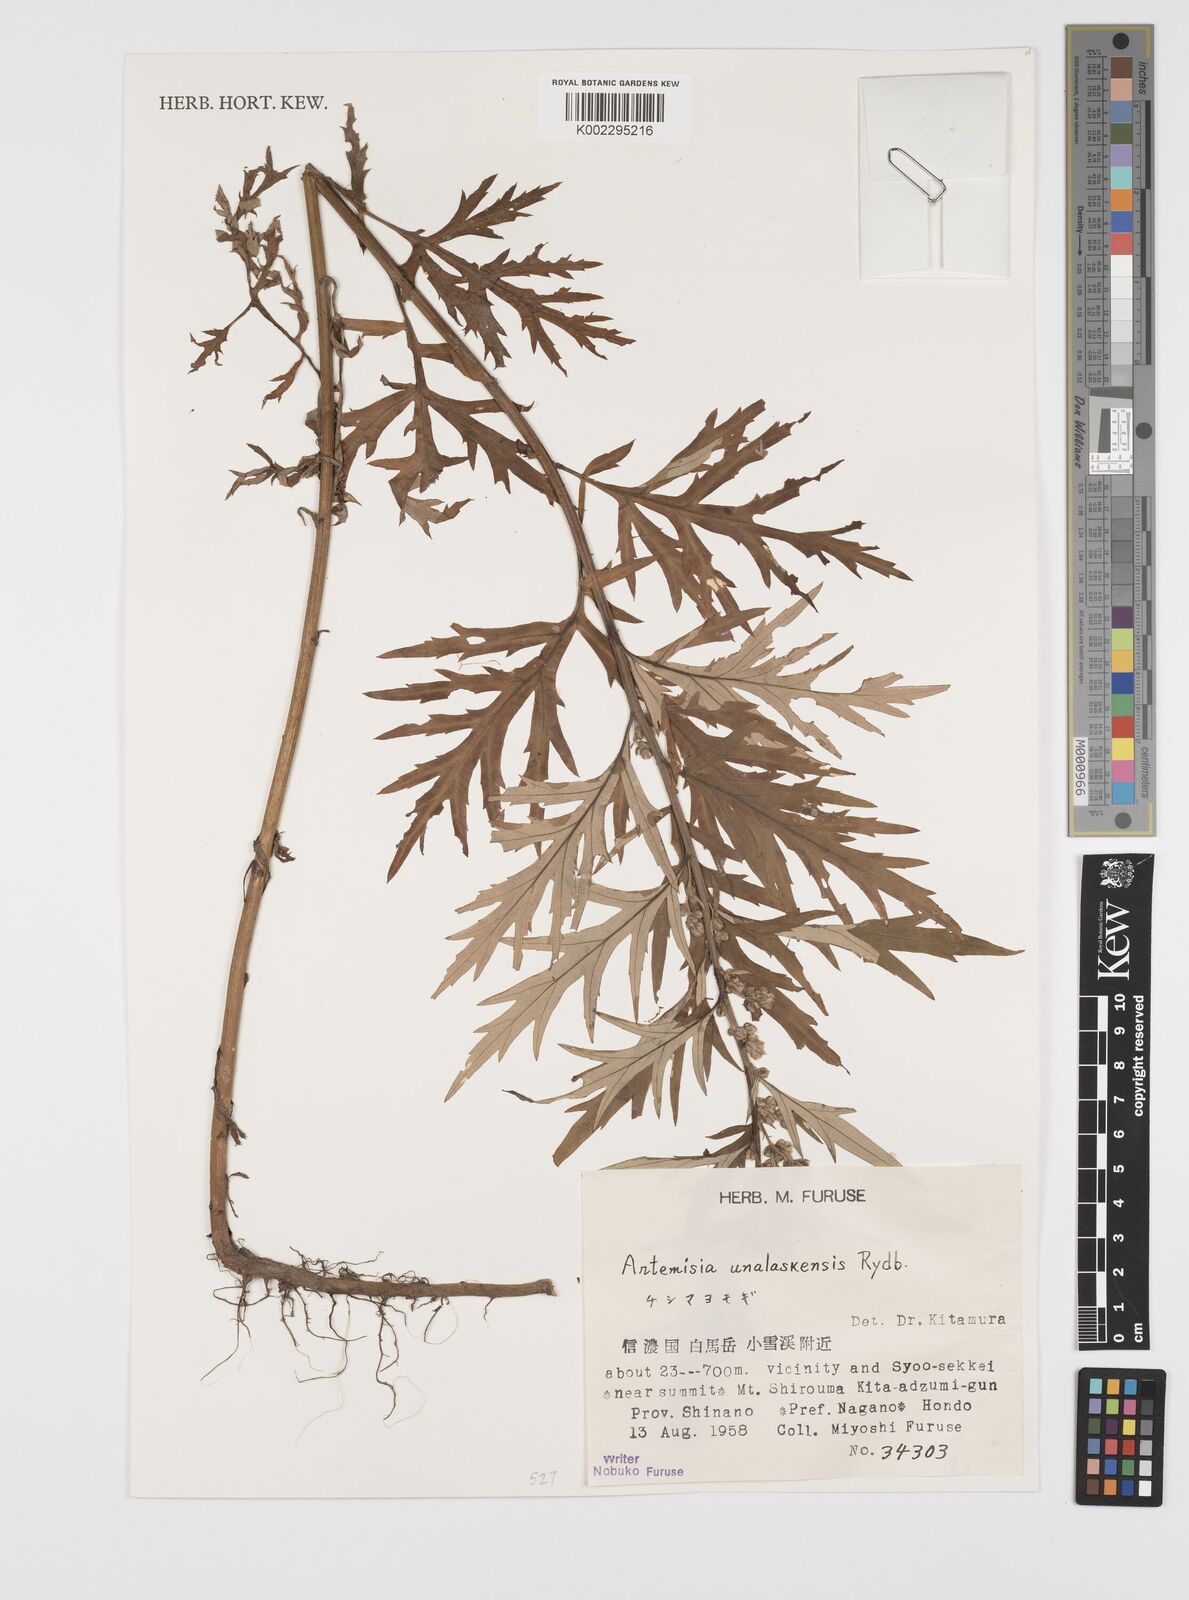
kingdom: Plantae
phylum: Tracheophyta
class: Magnoliopsida
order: Asterales
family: Asteraceae
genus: Artemisia
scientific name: Artemisia tilesii
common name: Aleutian mugwort
